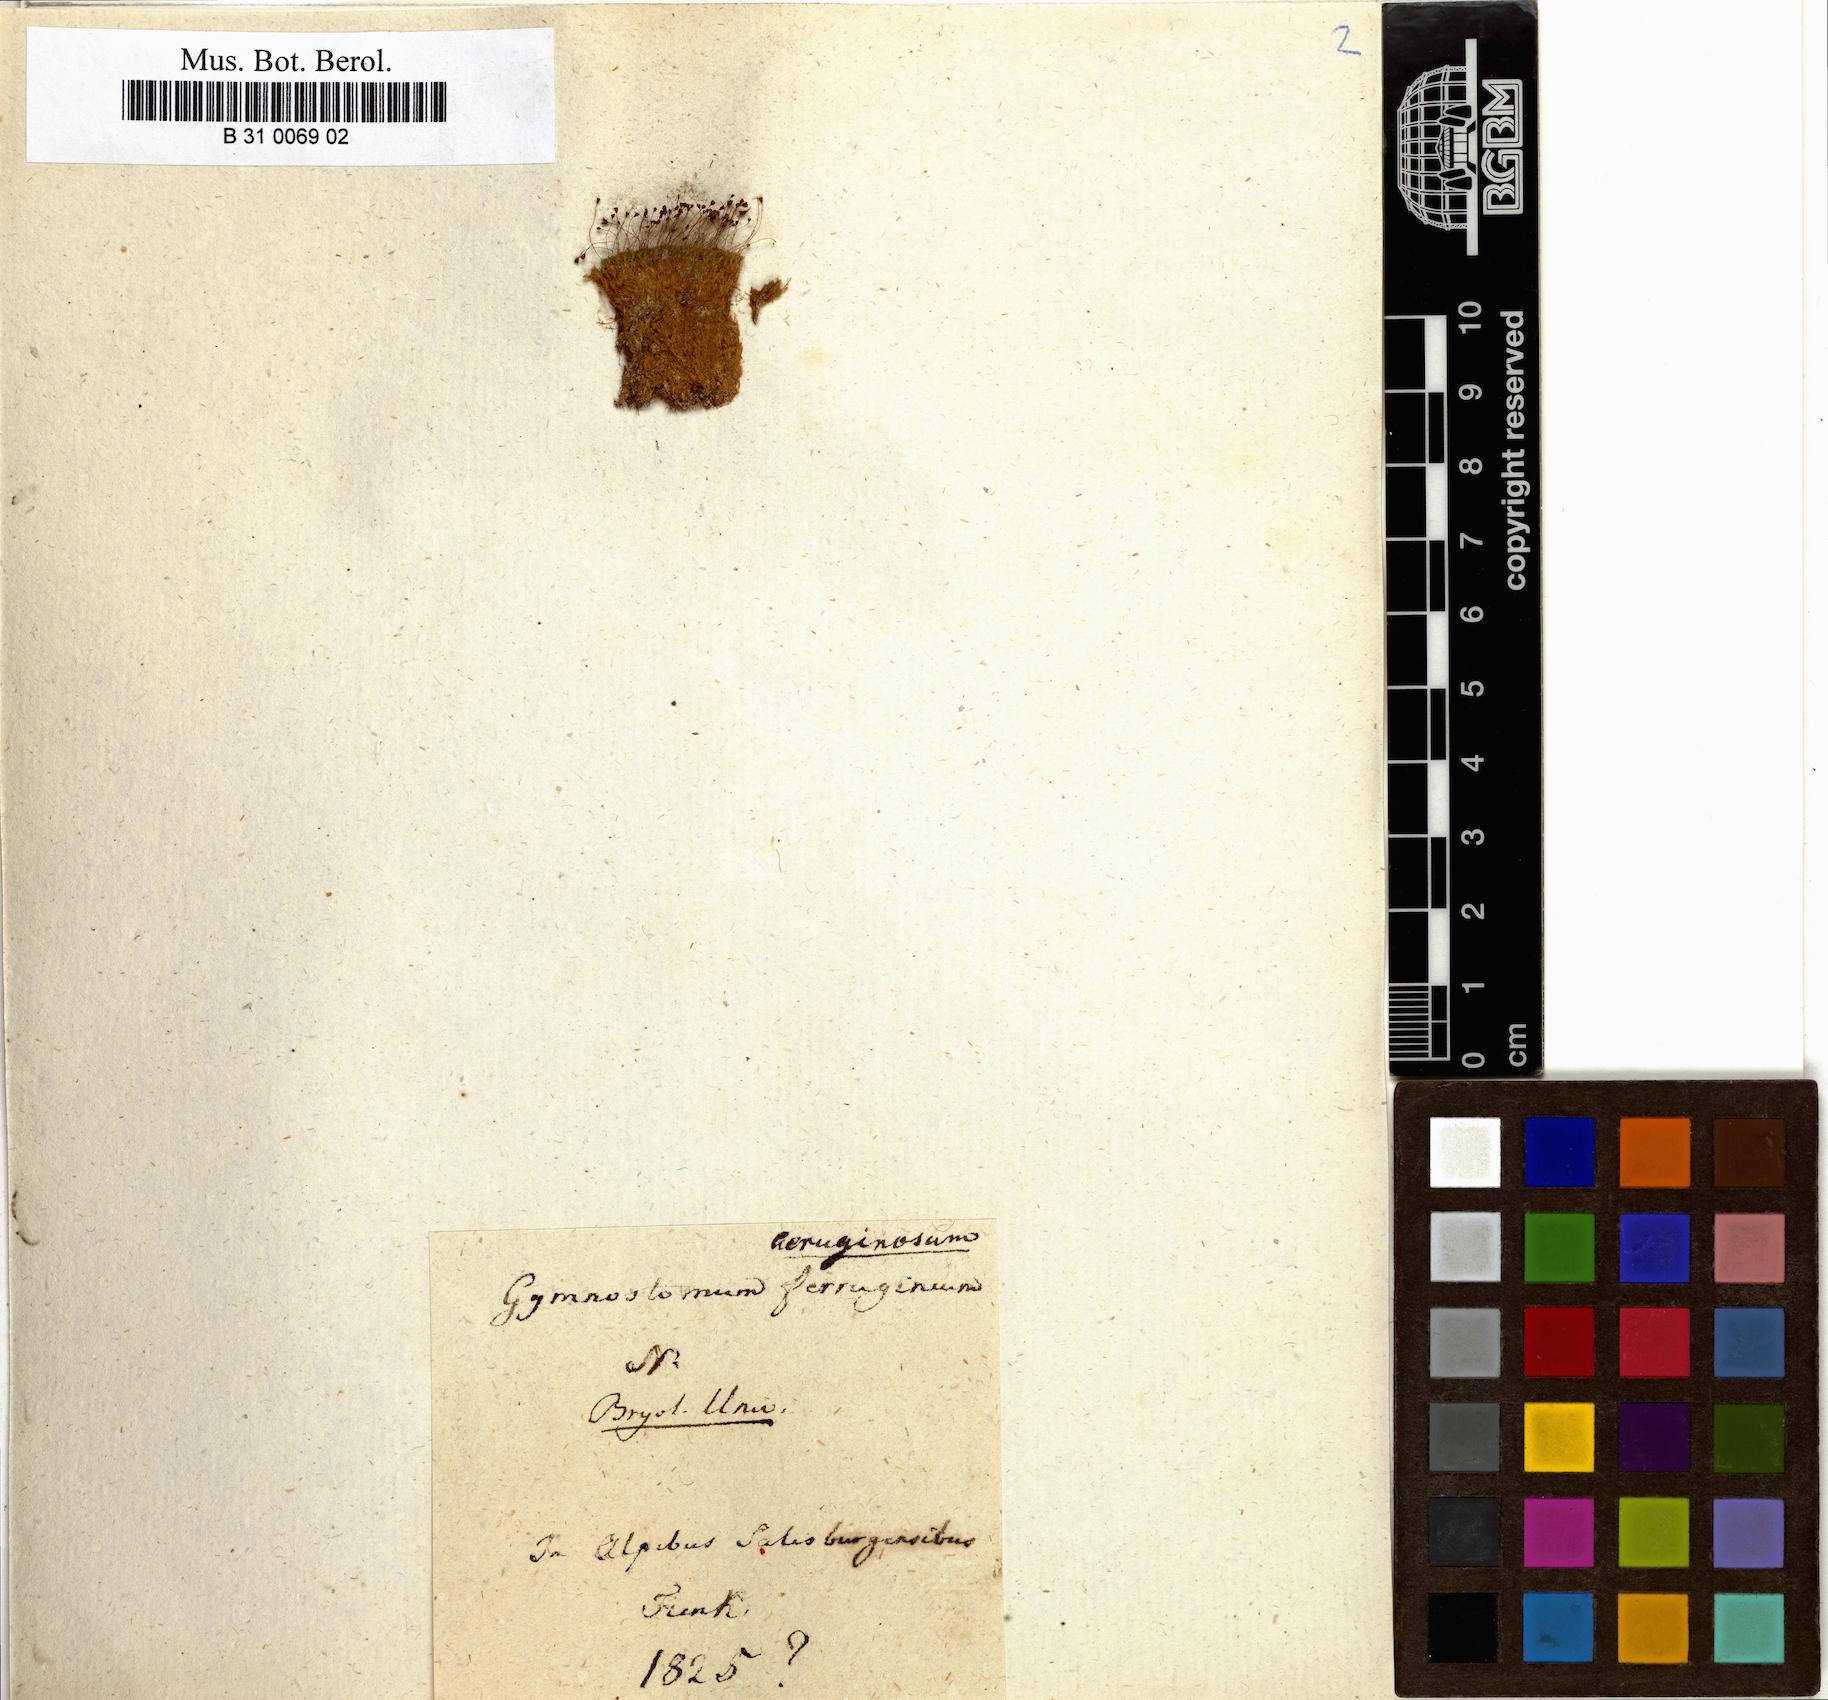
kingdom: Plantae
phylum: Bryophyta
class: Bryopsida
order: Pottiales
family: Pottiaceae
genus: Gymnostomum
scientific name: Gymnostomum aeruginosum
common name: Verdigris tufa-moss
